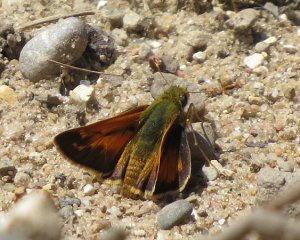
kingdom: Animalia
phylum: Arthropoda
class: Insecta
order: Lepidoptera
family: Hesperiidae
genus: Hesperia
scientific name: Hesperia sassacus
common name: Sassacus Skipper
